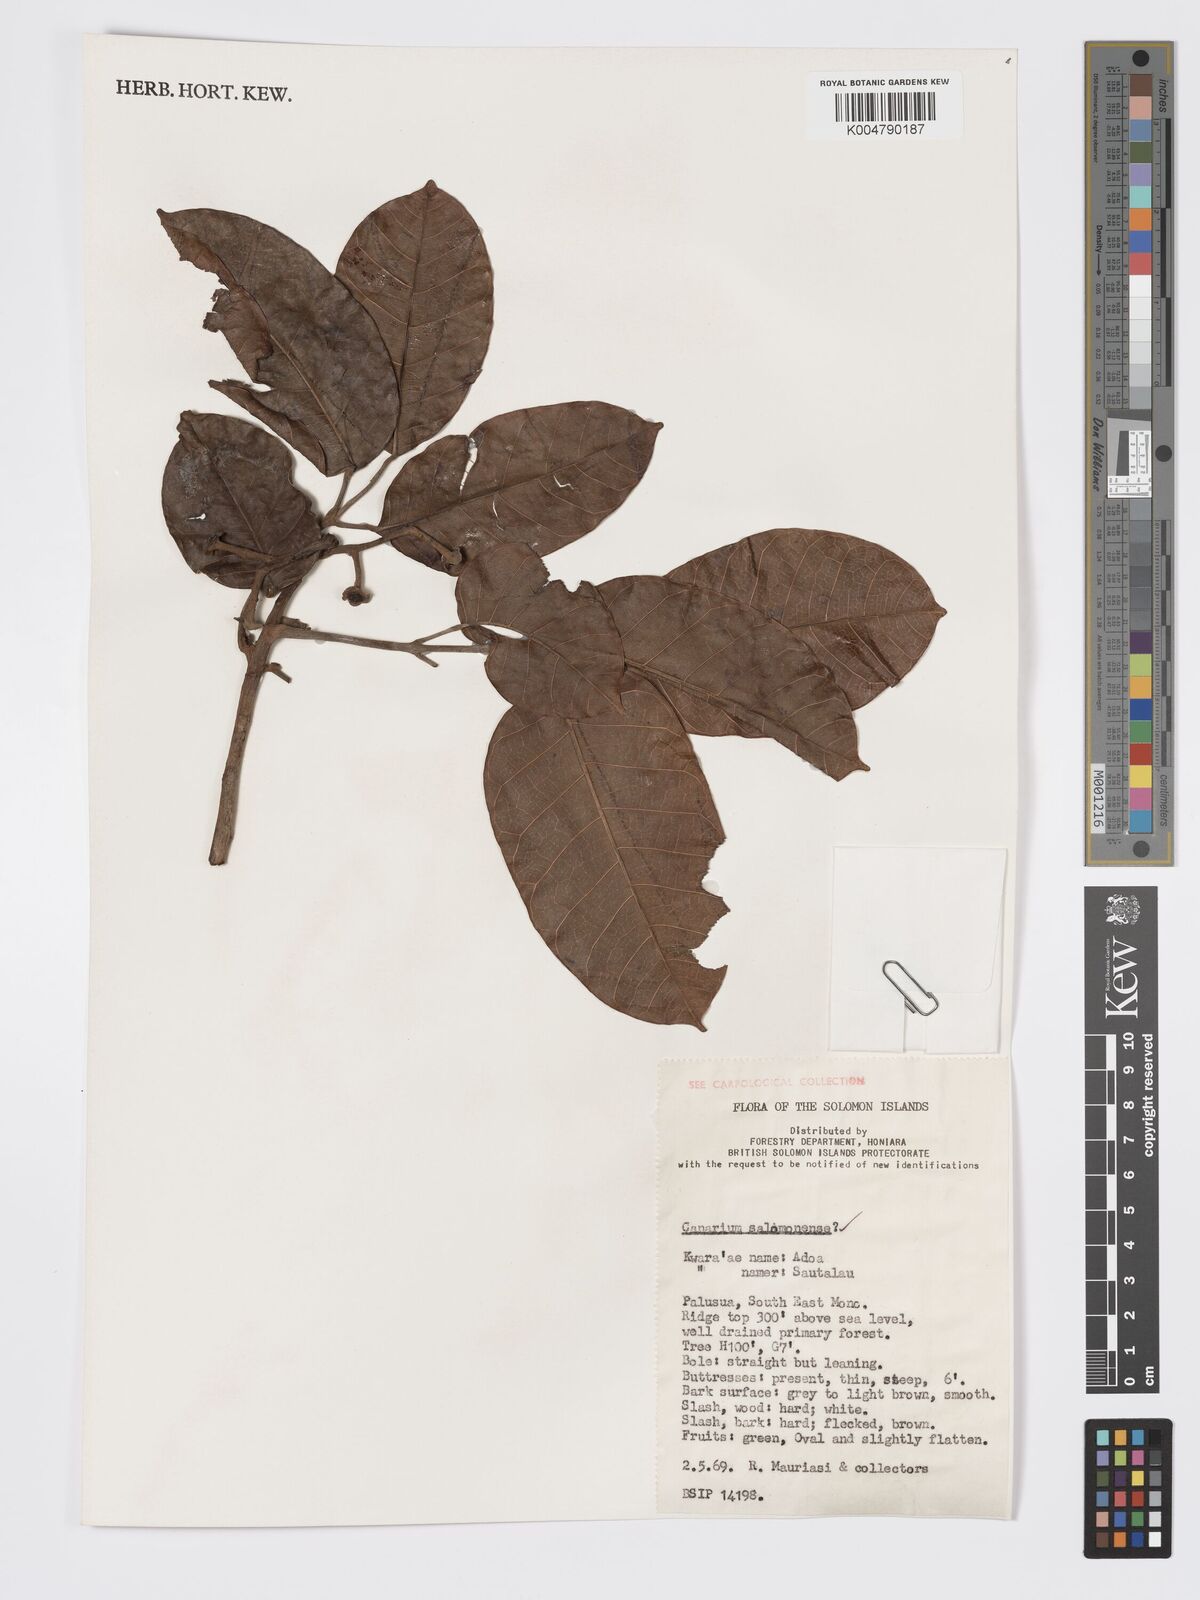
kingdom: Plantae
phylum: Tracheophyta
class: Magnoliopsida
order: Sapindales
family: Burseraceae
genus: Canarium
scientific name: Canarium salomonense
